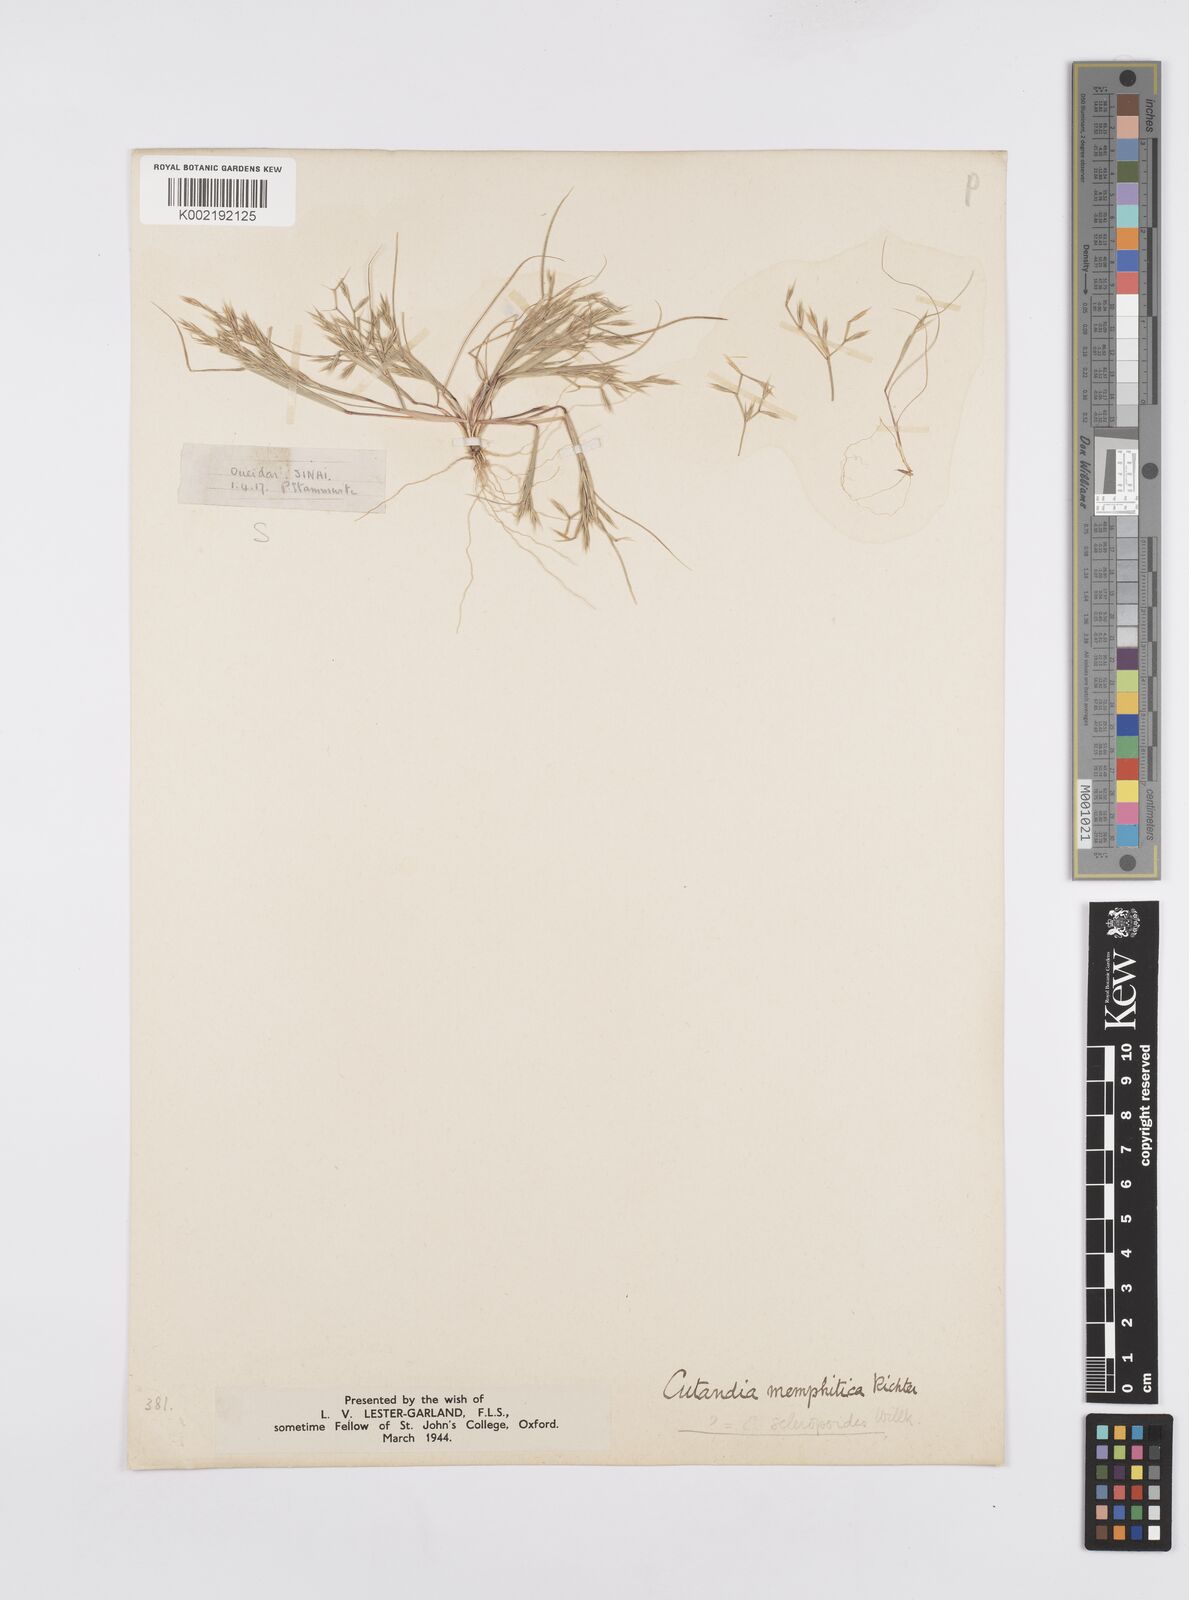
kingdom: Plantae
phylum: Tracheophyta
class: Liliopsida
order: Poales
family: Poaceae
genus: Cutandia
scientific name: Cutandia memphitica
